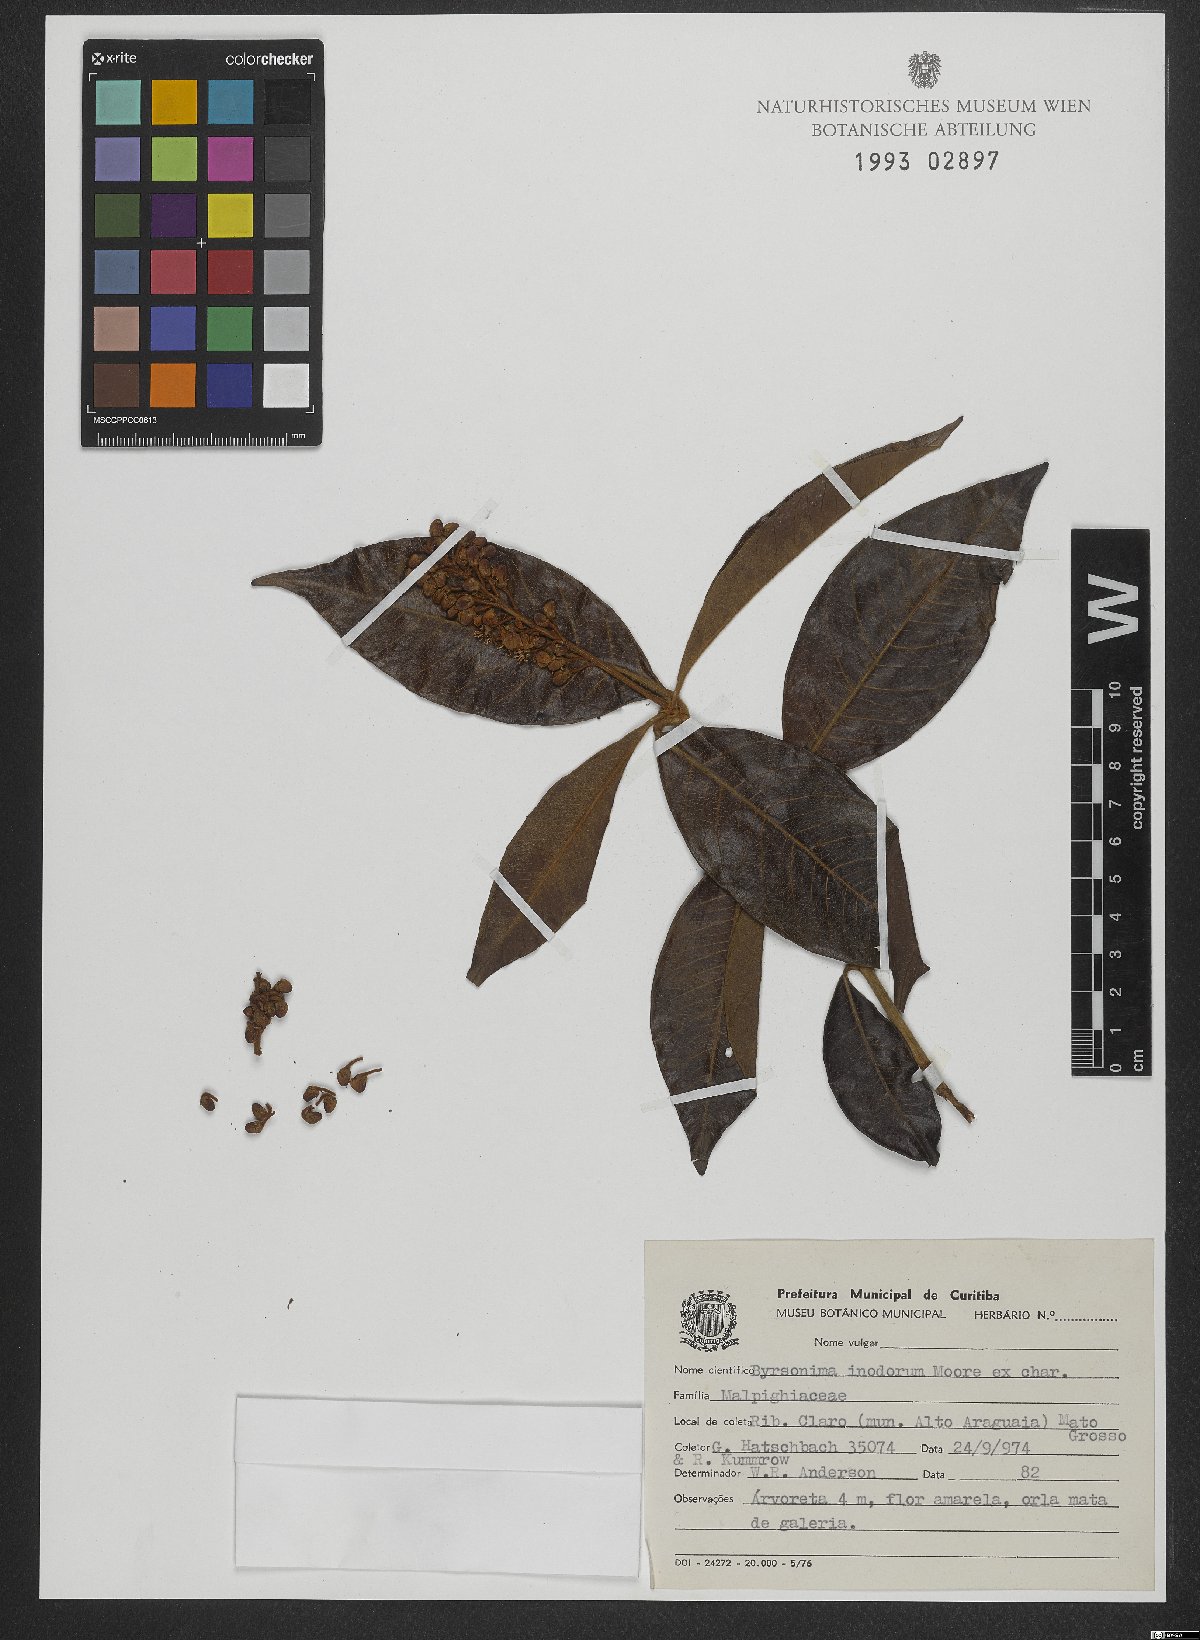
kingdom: Plantae
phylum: Tracheophyta
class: Magnoliopsida
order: Malpighiales
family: Malpighiaceae
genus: Byrsonima
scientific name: Byrsonima arthropoda
